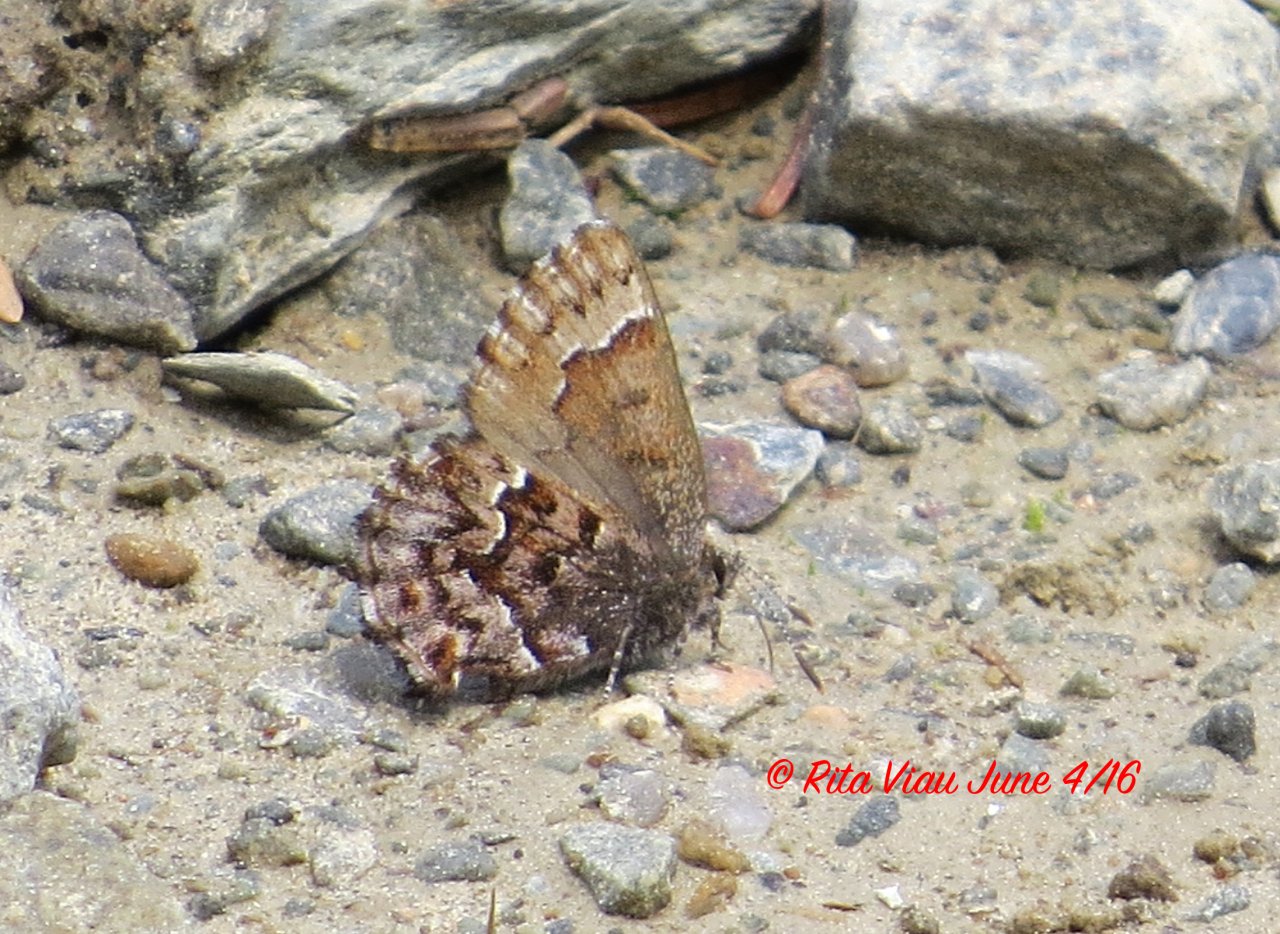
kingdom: Animalia
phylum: Arthropoda
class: Insecta
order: Lepidoptera
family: Lycaenidae
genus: Incisalia
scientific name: Incisalia niphon
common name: Eastern Pine Elfin
